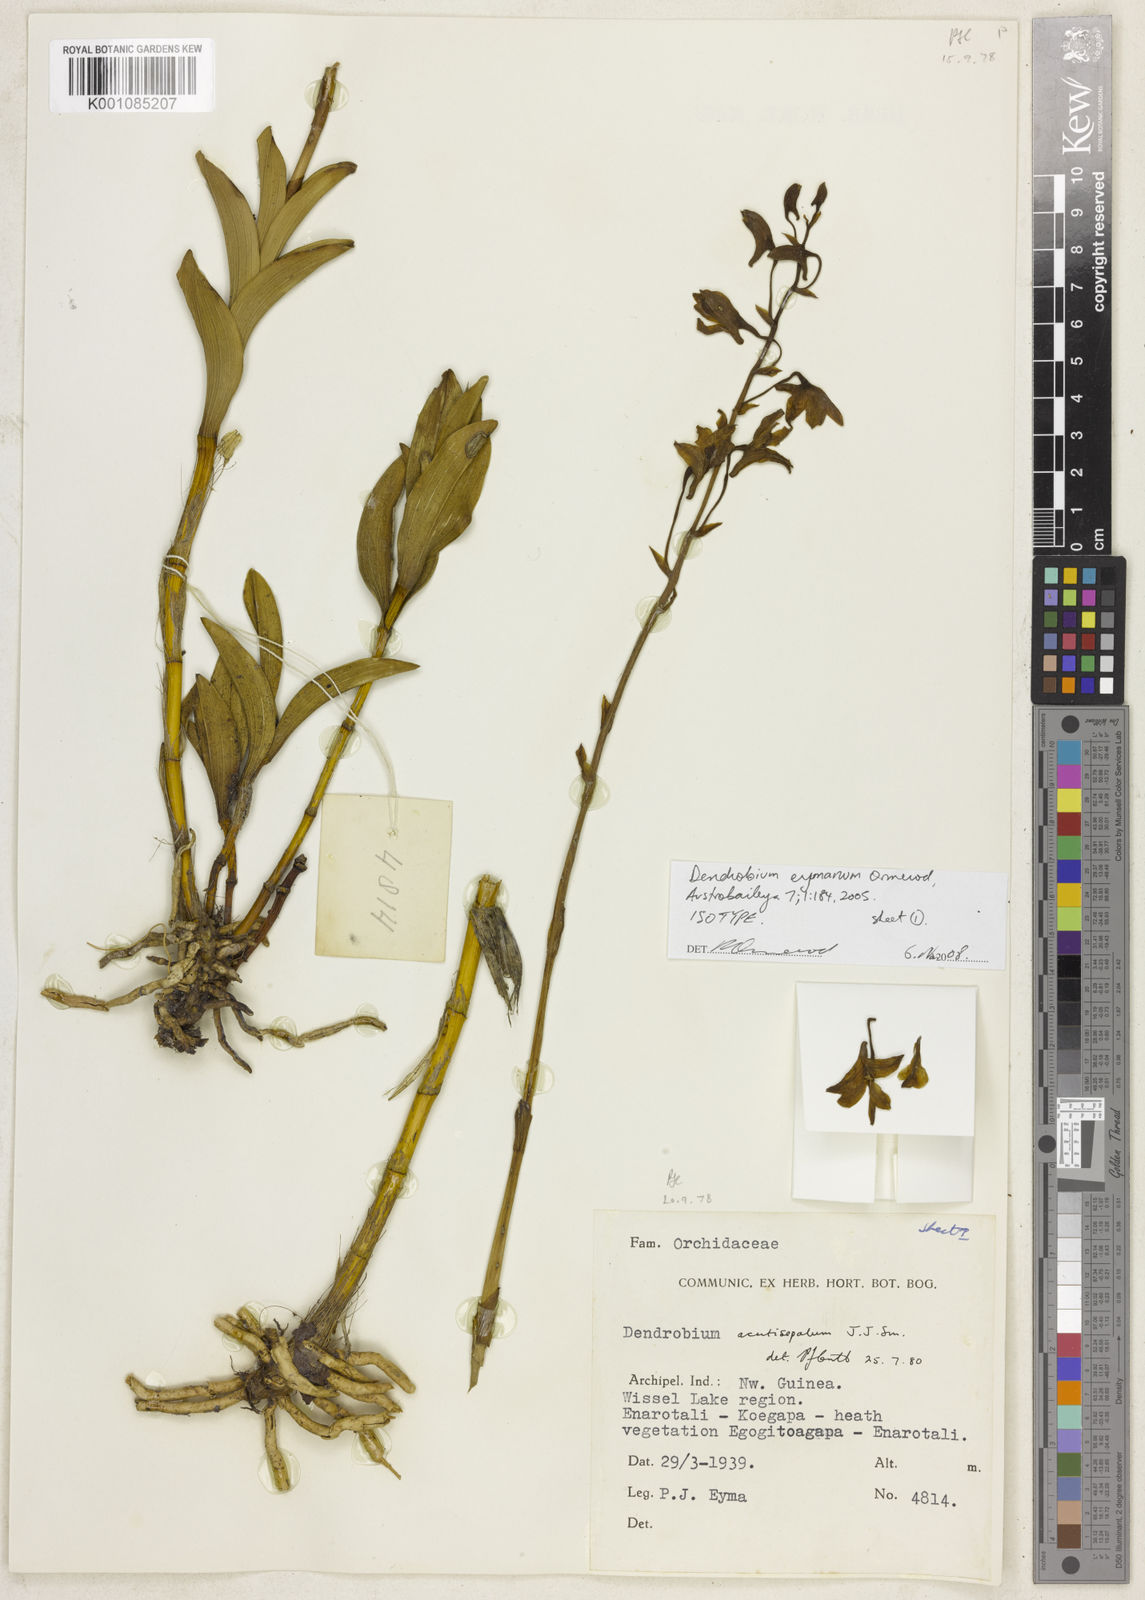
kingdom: Plantae
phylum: Tracheophyta
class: Liliopsida
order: Asparagales
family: Orchidaceae
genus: Dendrobium
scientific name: Dendrobium eymanum
